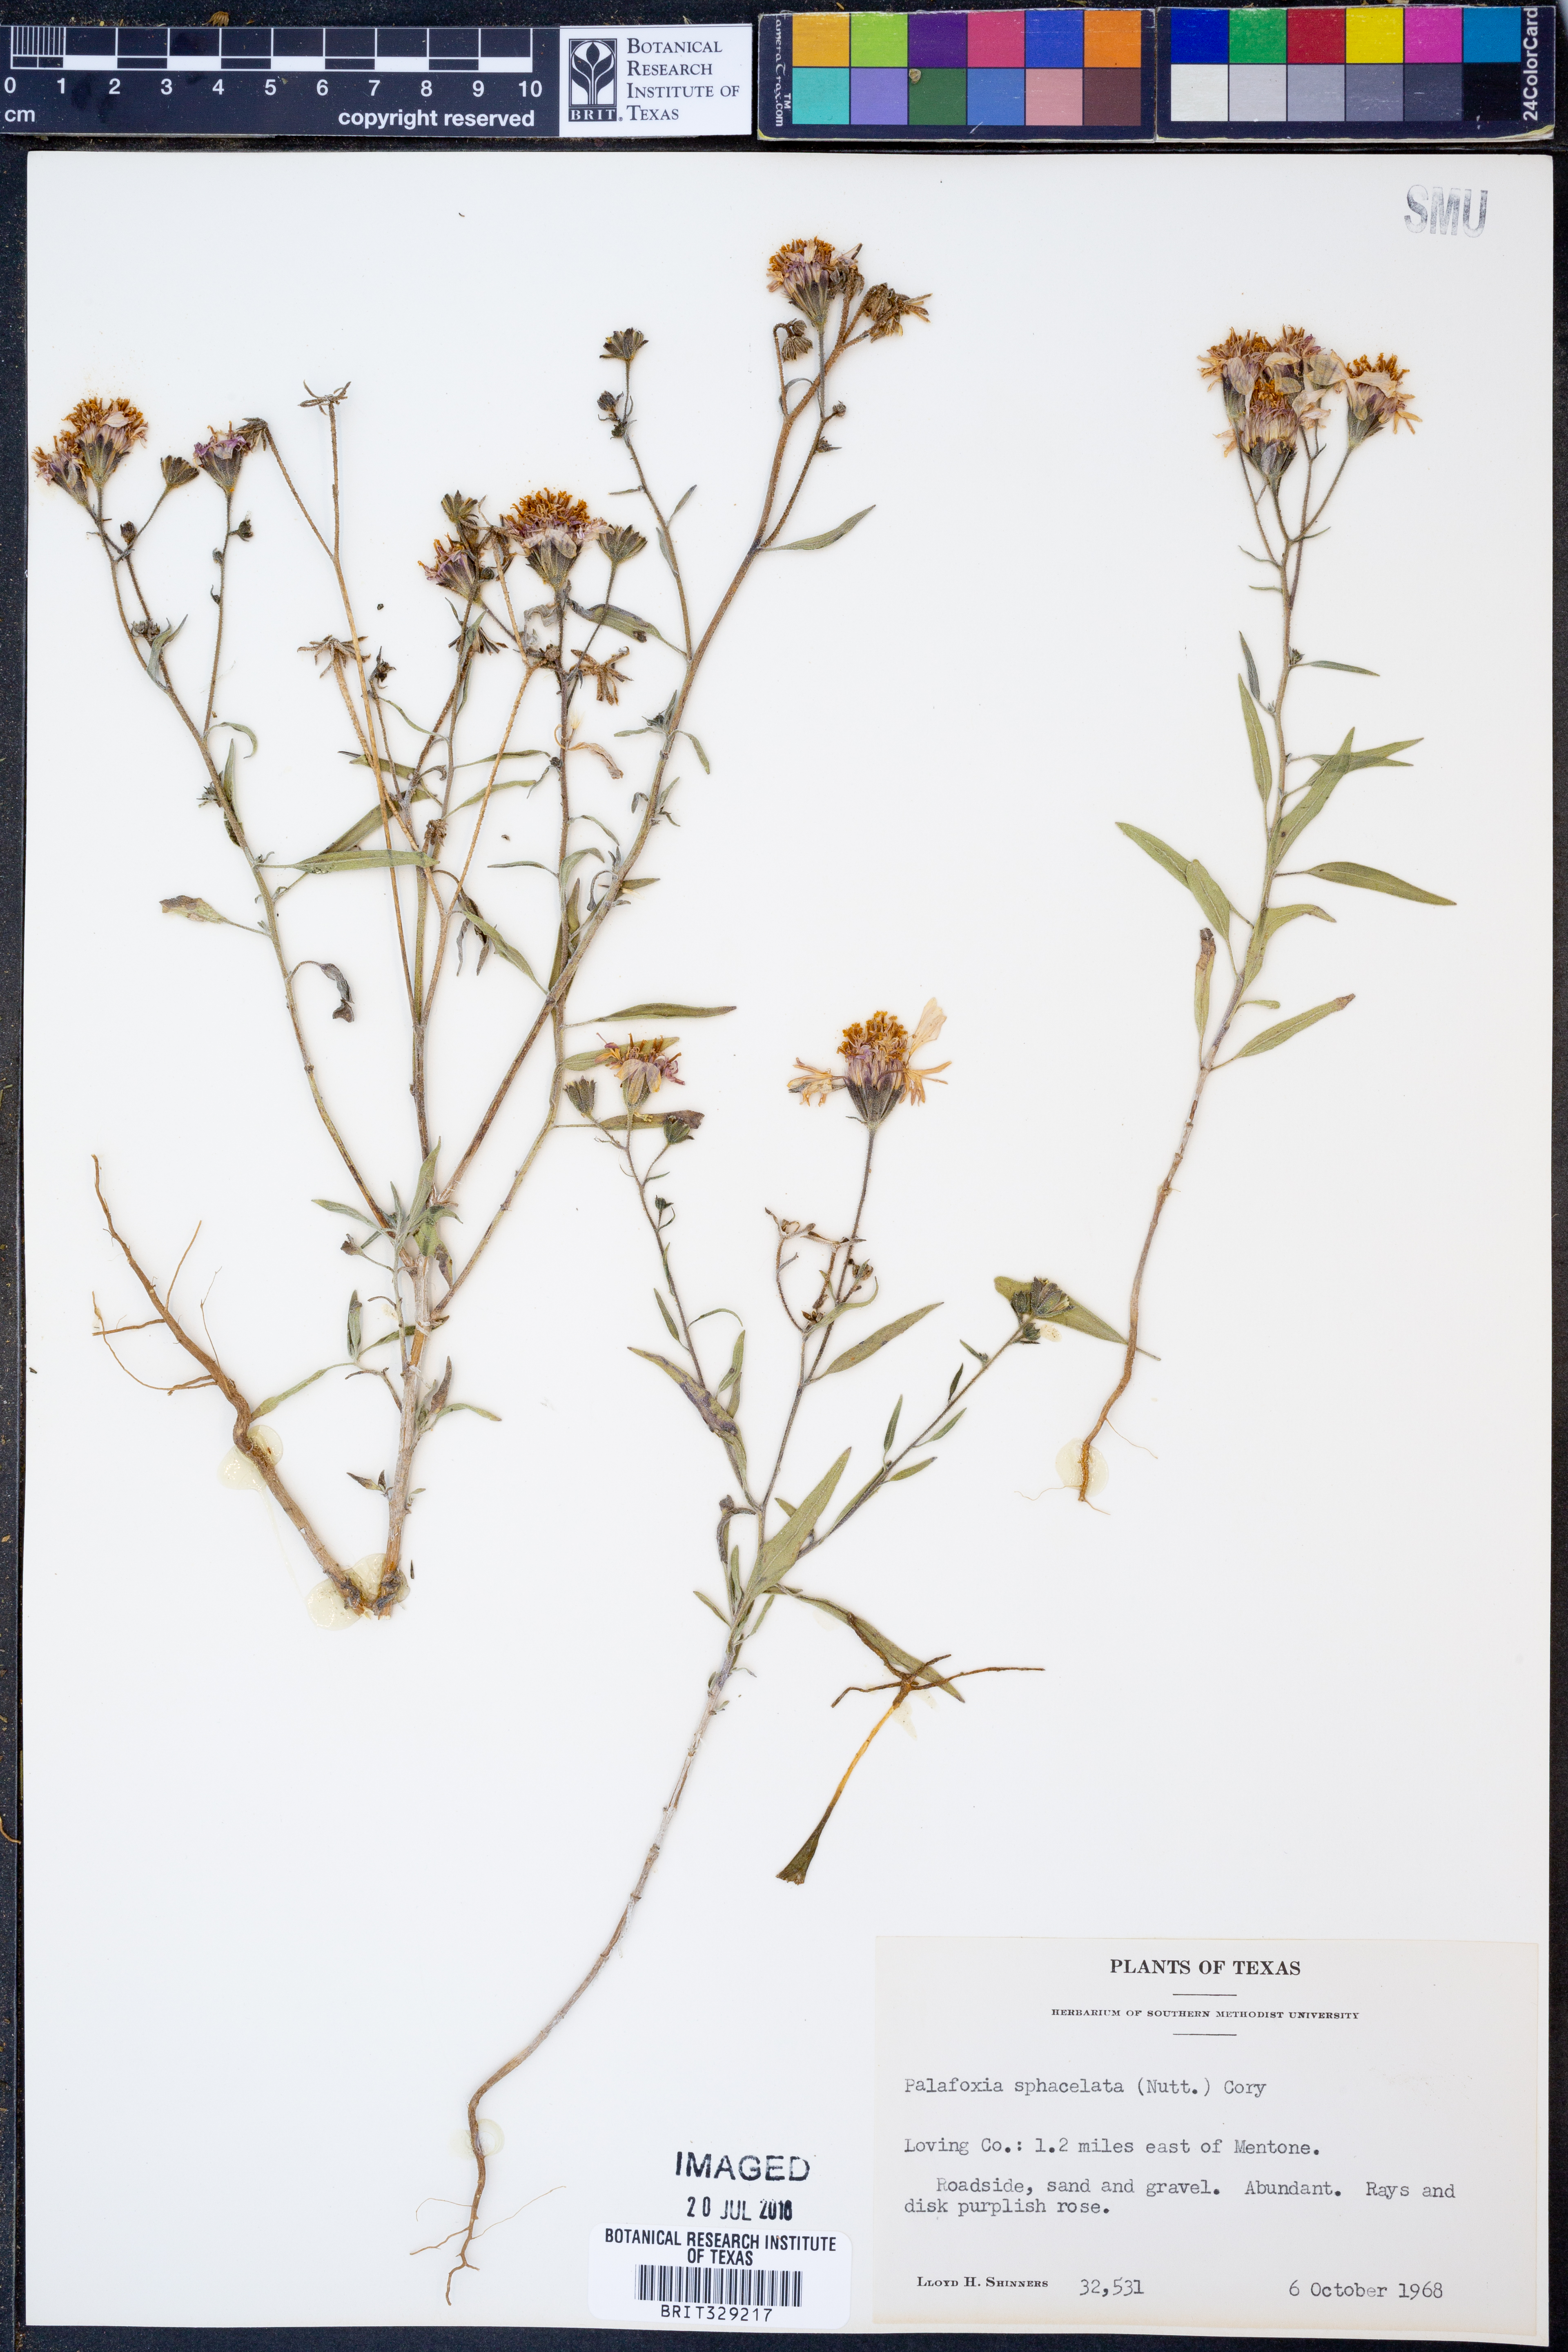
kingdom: Plantae
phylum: Tracheophyta
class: Magnoliopsida
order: Asterales
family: Asteraceae
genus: Palafoxia
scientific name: Palafoxia sphacelata
